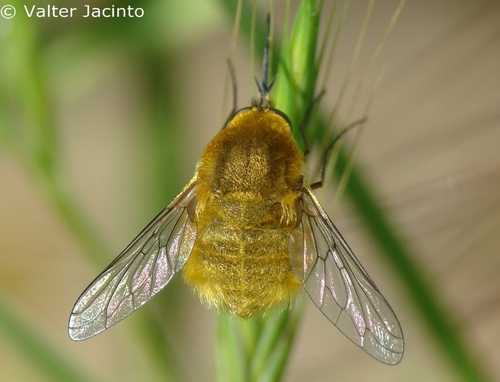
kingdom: Animalia
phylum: Arthropoda
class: Insecta
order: Diptera
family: Bombyliidae
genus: Bombylius
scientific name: Bombylius
